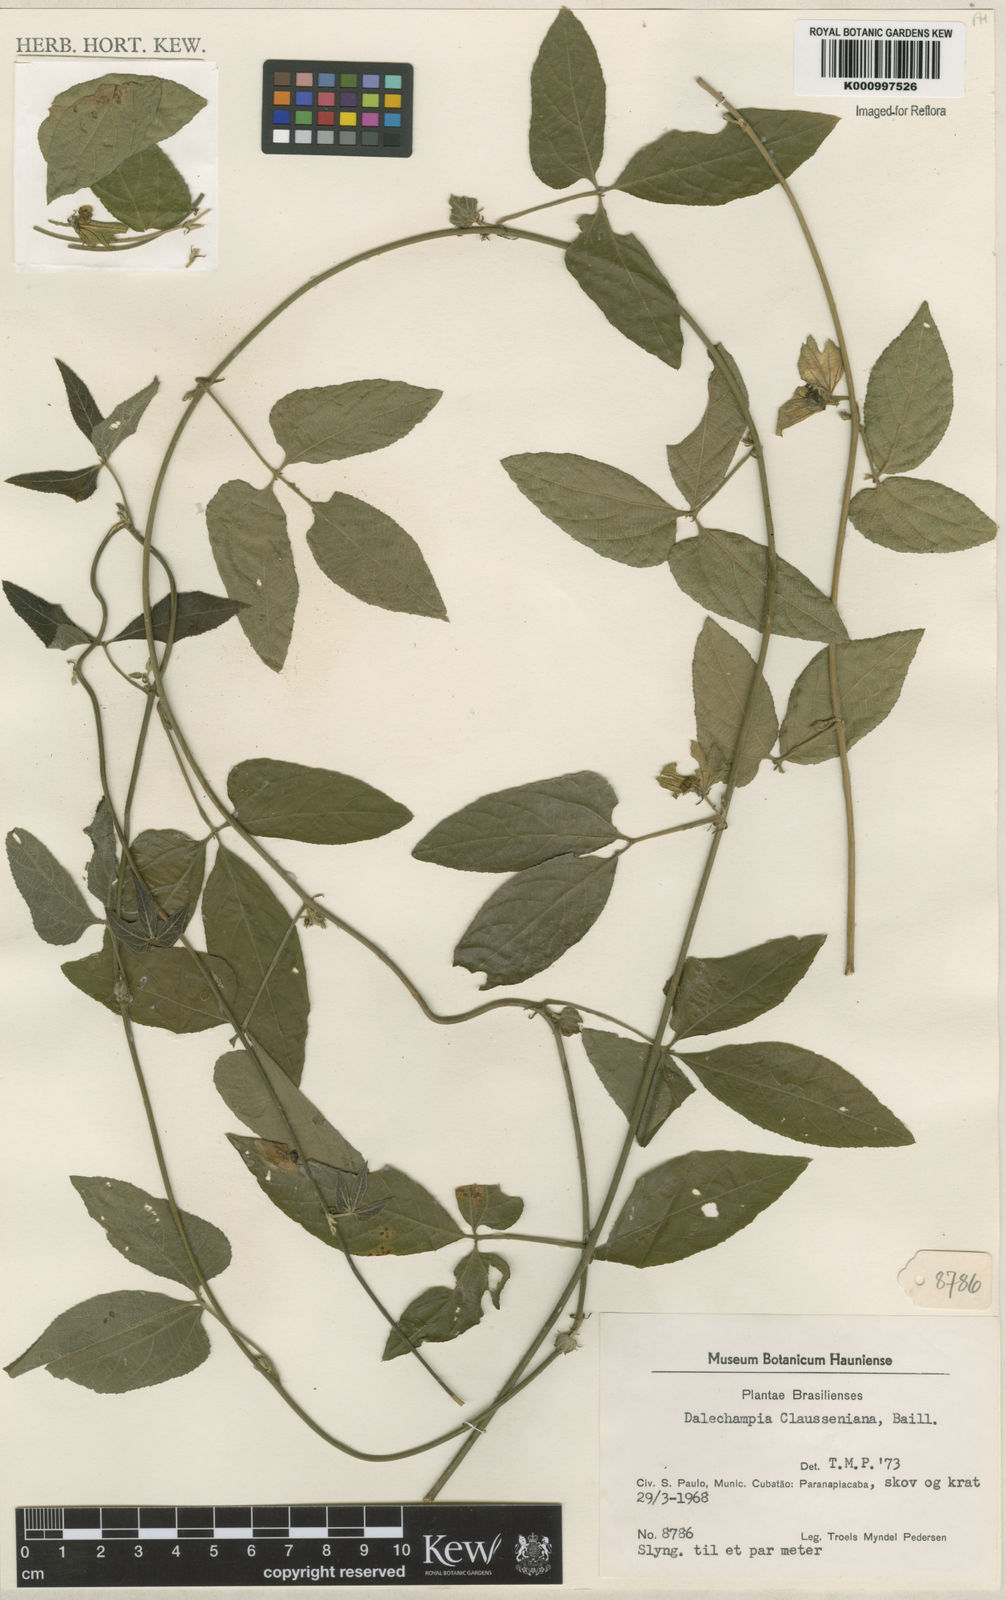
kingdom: Plantae
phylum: Tracheophyta
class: Magnoliopsida
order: Malpighiales
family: Euphorbiaceae
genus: Dalechampia
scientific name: Dalechampia clausseniana
